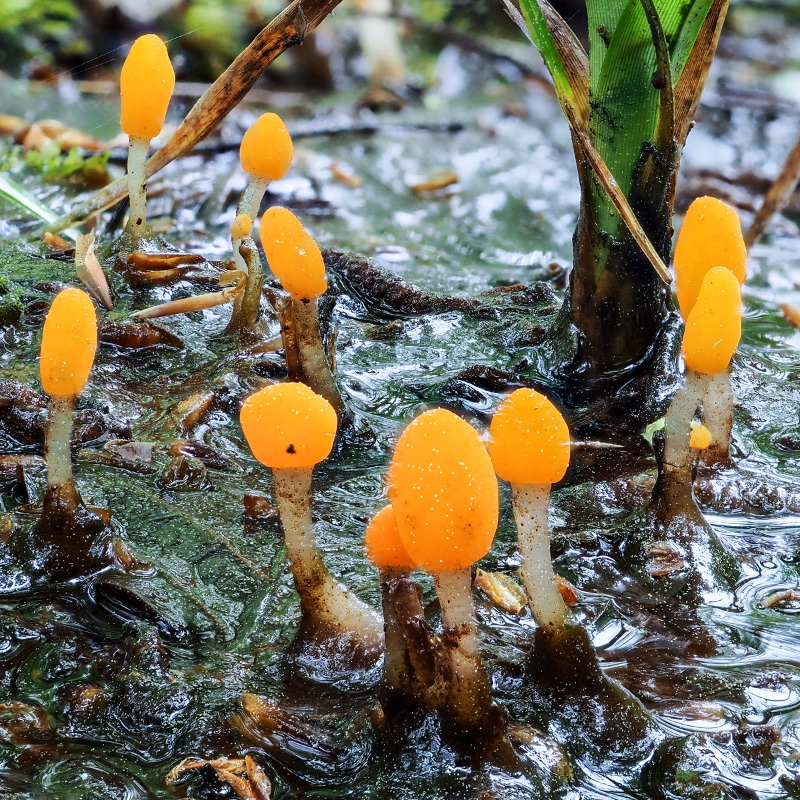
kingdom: Fungi
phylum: Ascomycota
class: Leotiomycetes
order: Helotiales
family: Cenangiaceae
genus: Mitrula
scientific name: Mitrula paludosa
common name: gul nøkketunge
